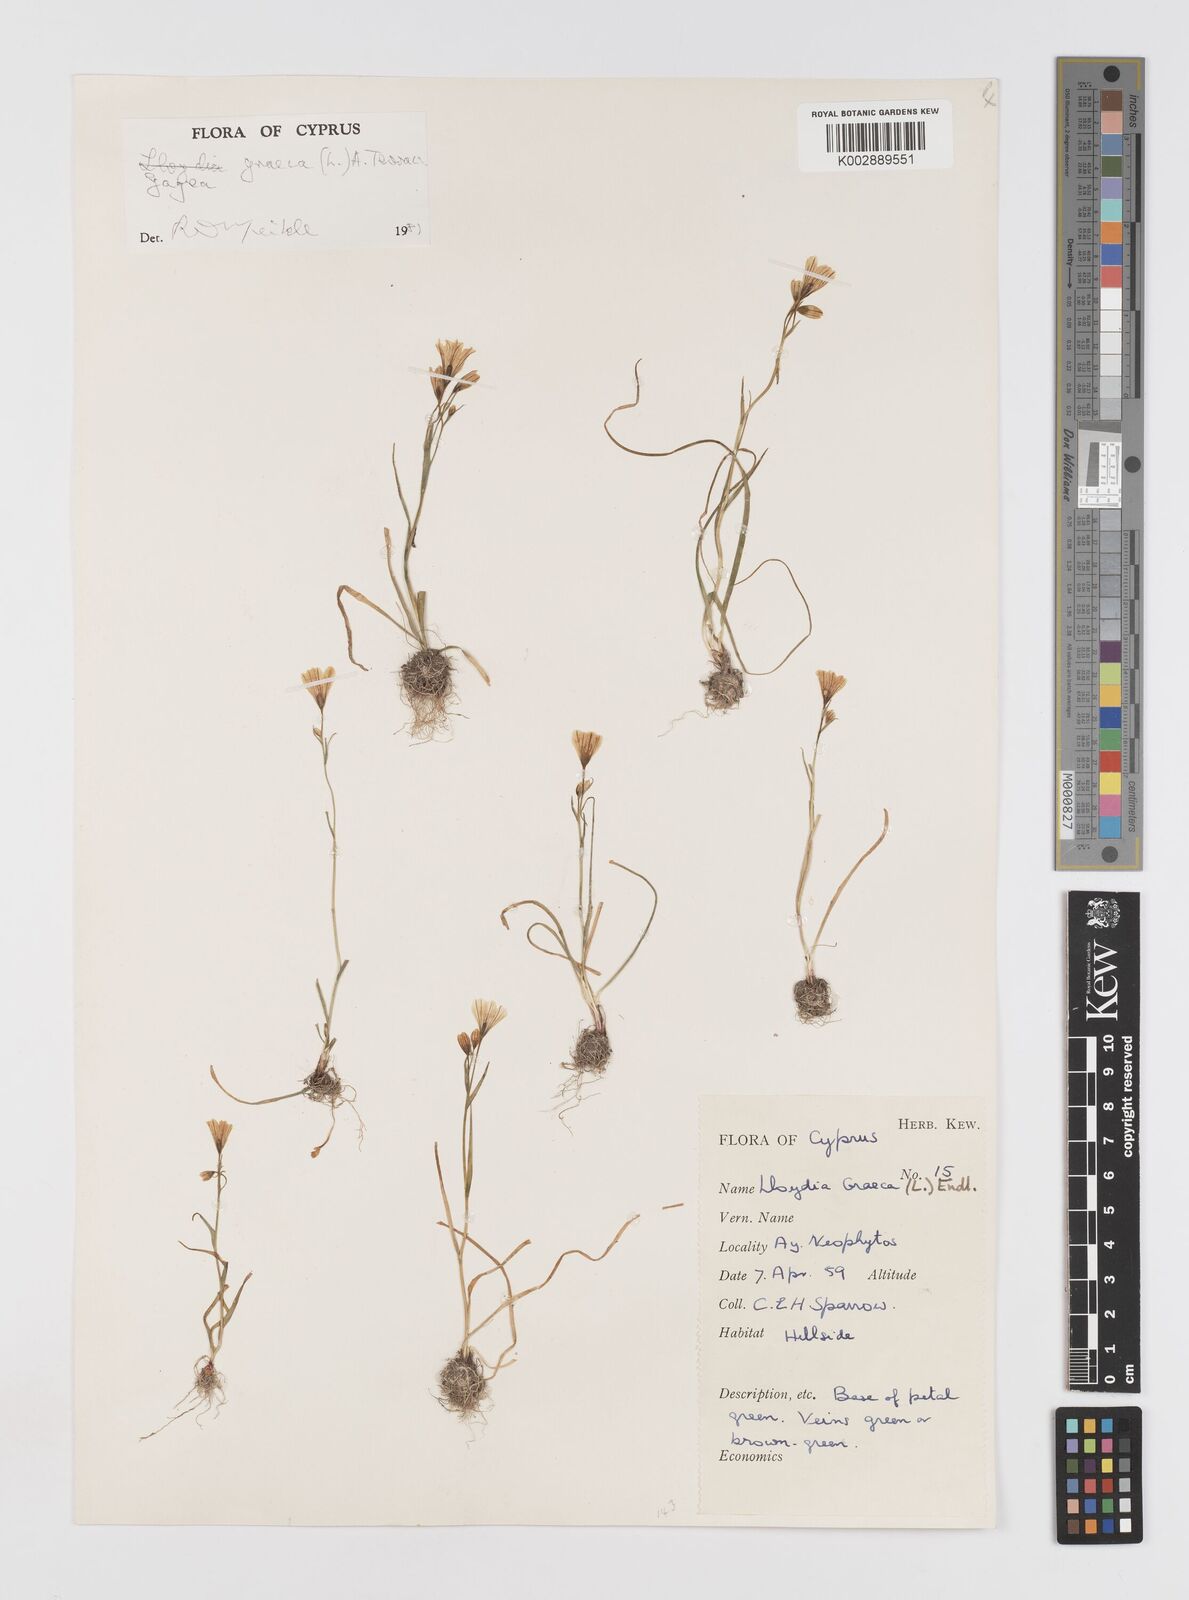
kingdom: Plantae
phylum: Tracheophyta
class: Liliopsida
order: Liliales
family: Liliaceae
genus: Gagea
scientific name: Gagea graeca
